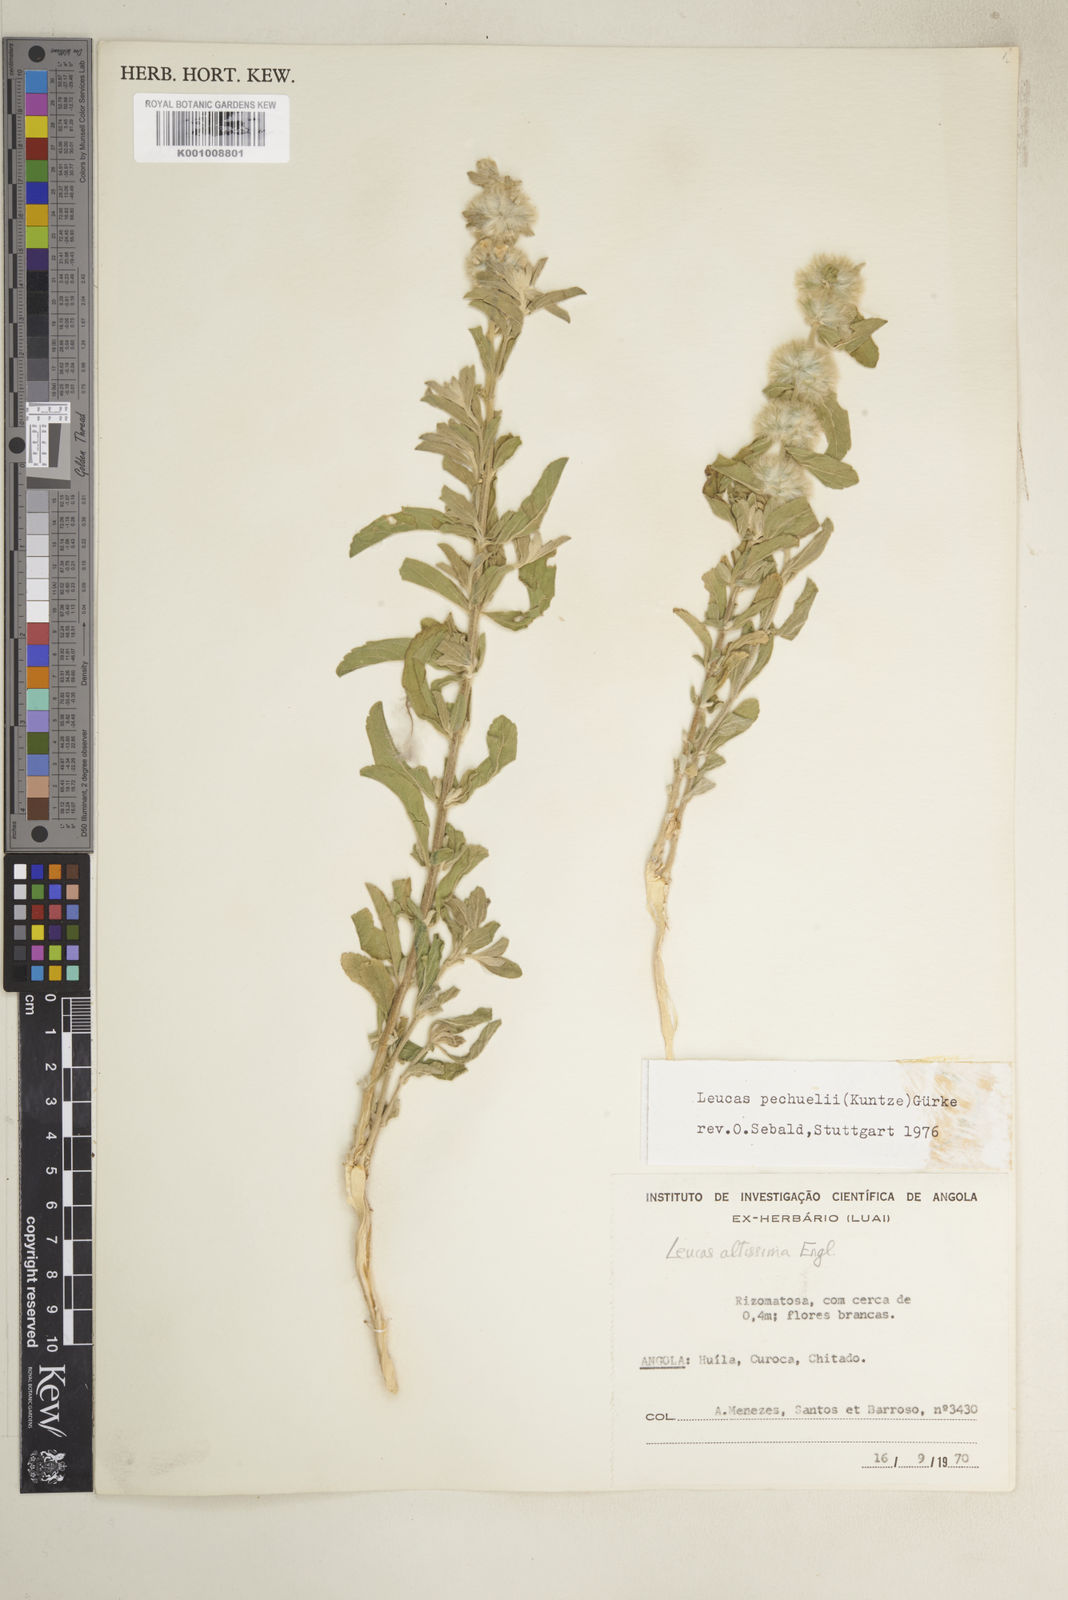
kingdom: Plantae
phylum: Tracheophyta
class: Magnoliopsida
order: Lamiales
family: Lamiaceae
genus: Leucas
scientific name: Leucas pechuelii
